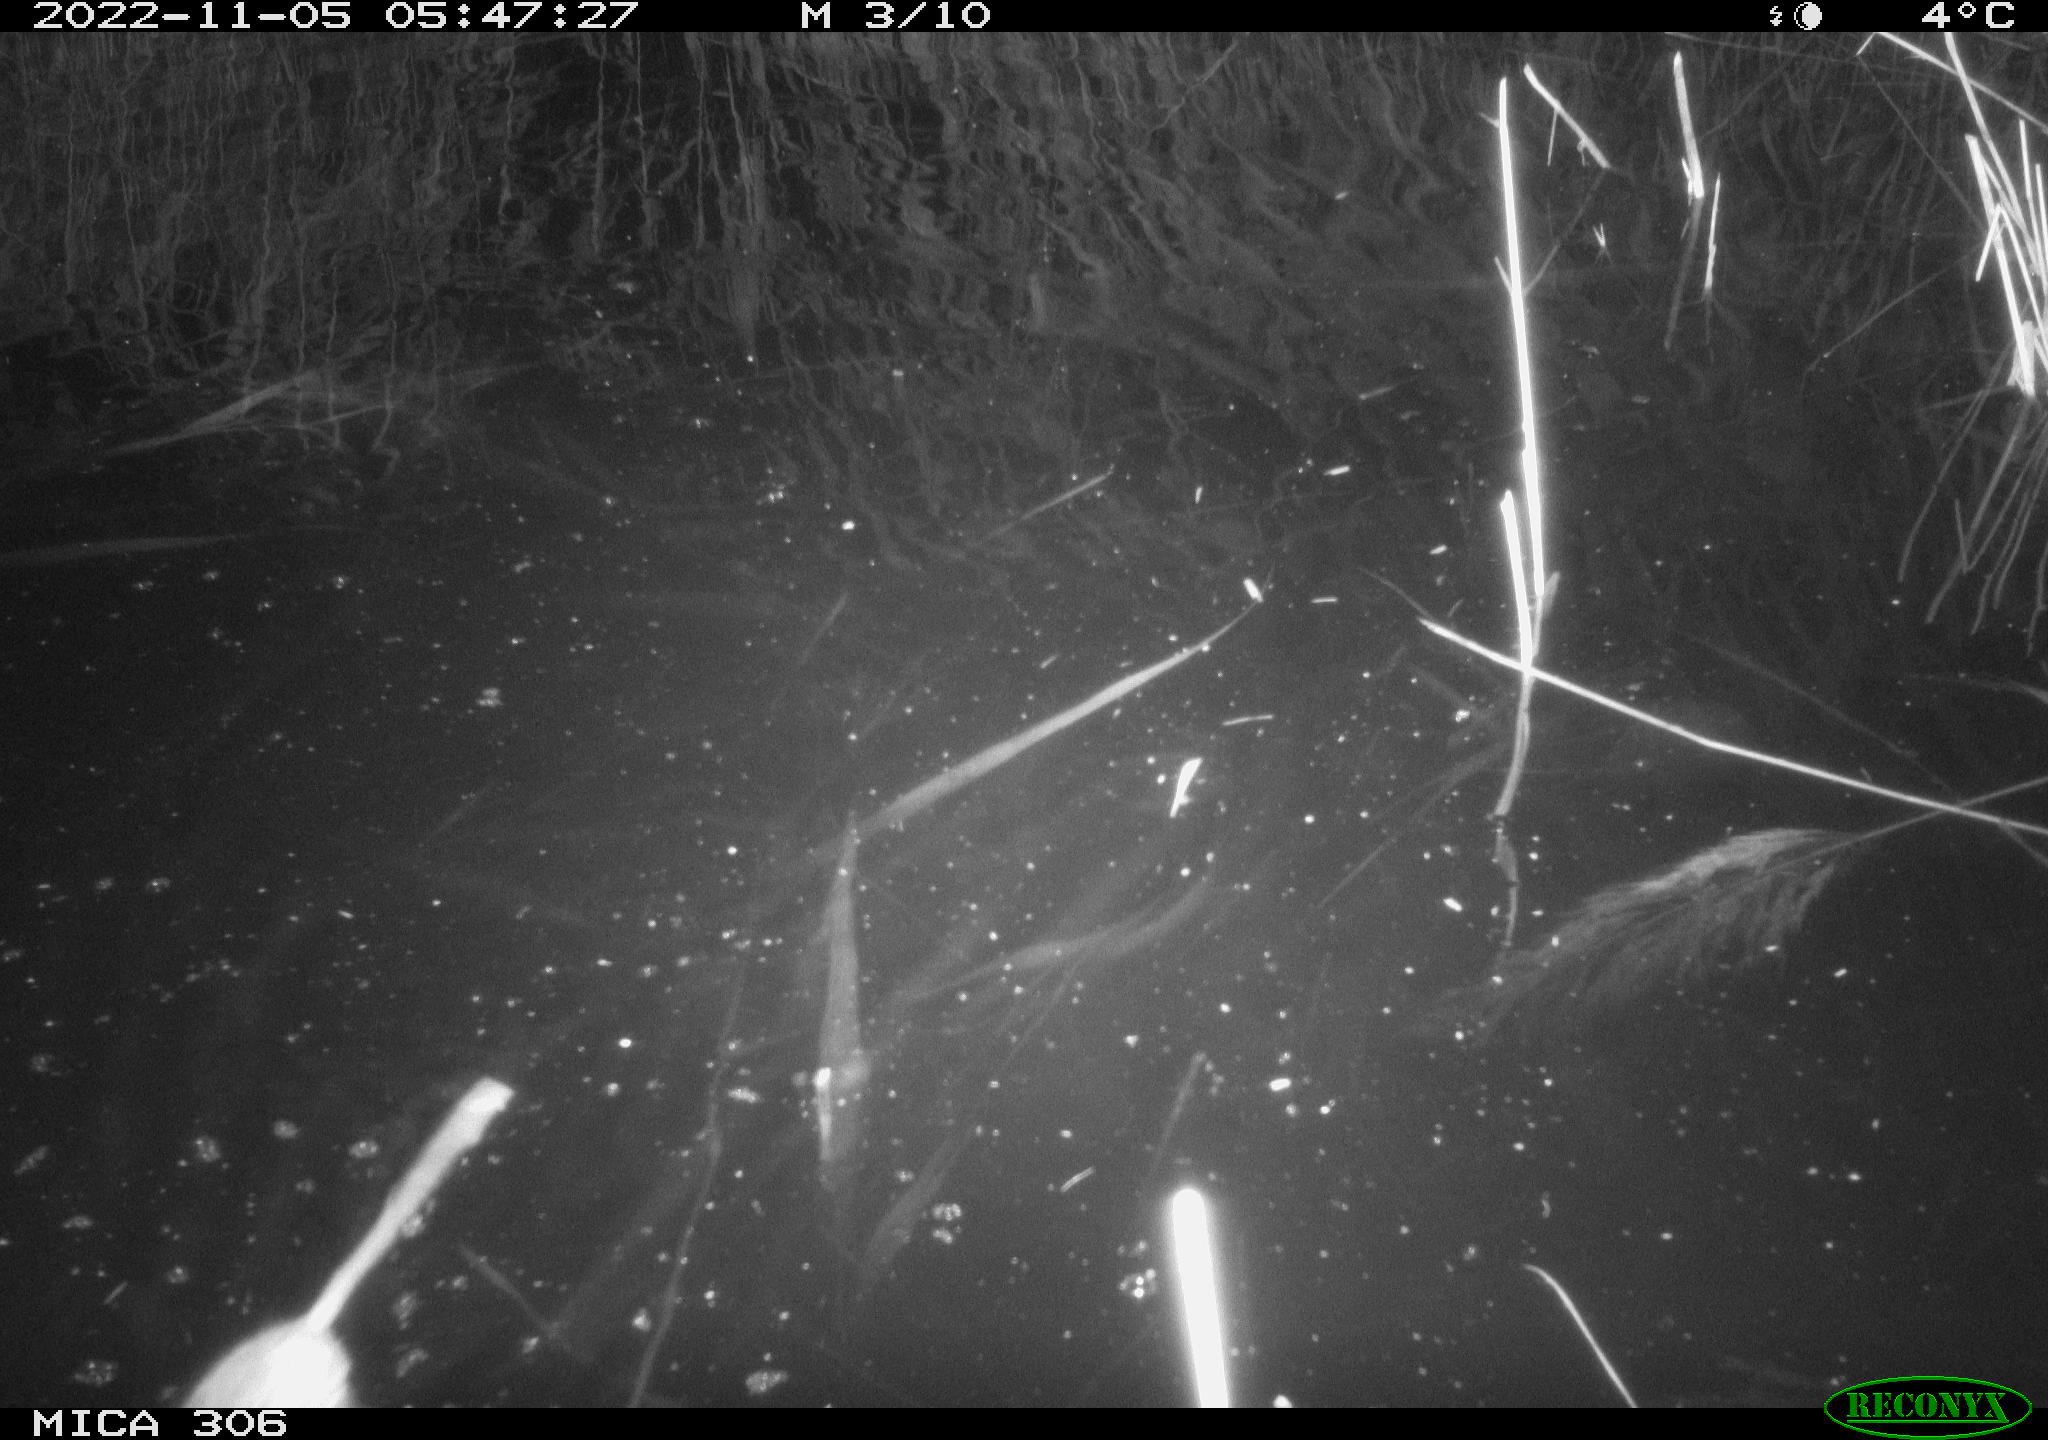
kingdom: Animalia
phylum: Chordata
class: Mammalia
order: Rodentia
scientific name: Rodentia
